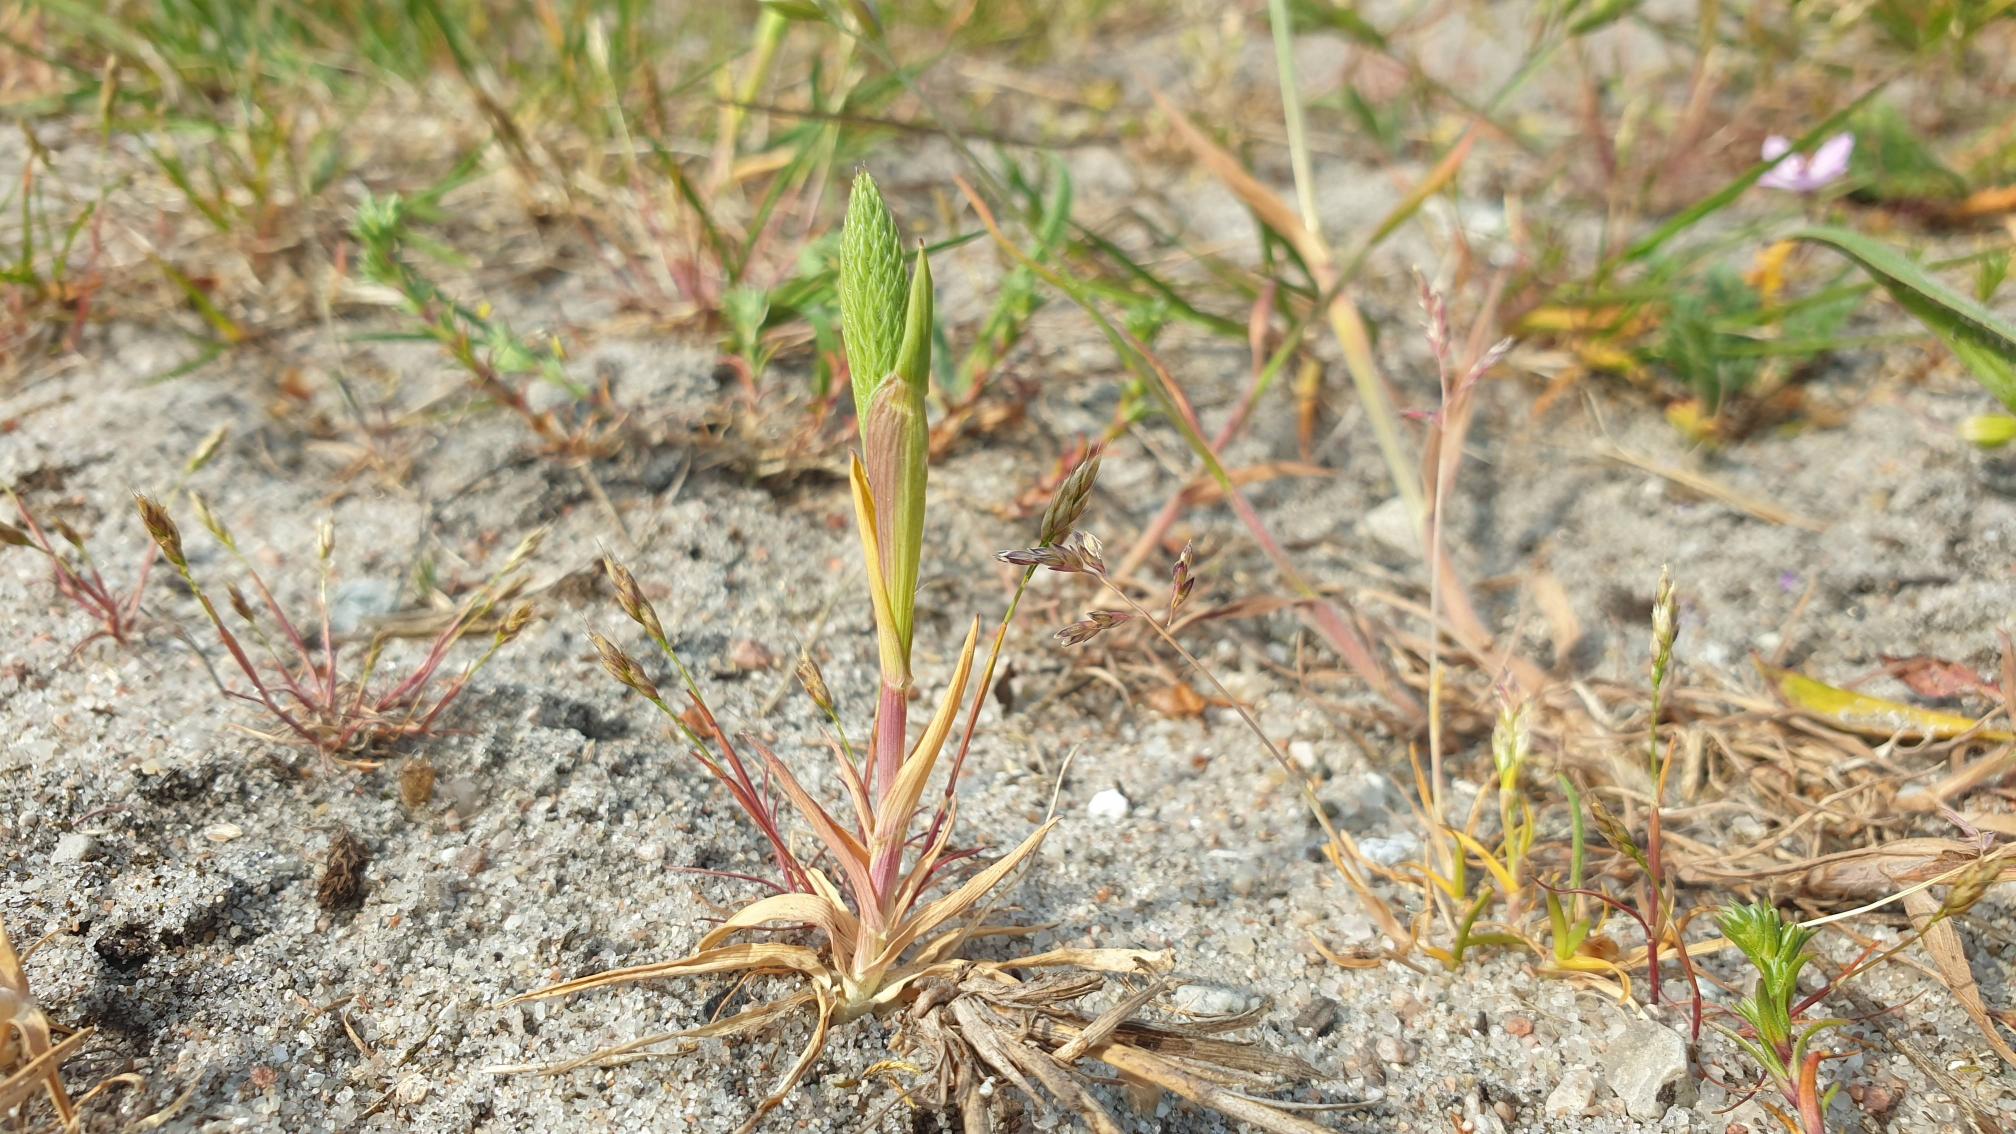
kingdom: Plantae
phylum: Tracheophyta
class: Liliopsida
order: Poales
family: Poaceae
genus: Phleum
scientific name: Phleum arenarium
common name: Sand-rottehale
